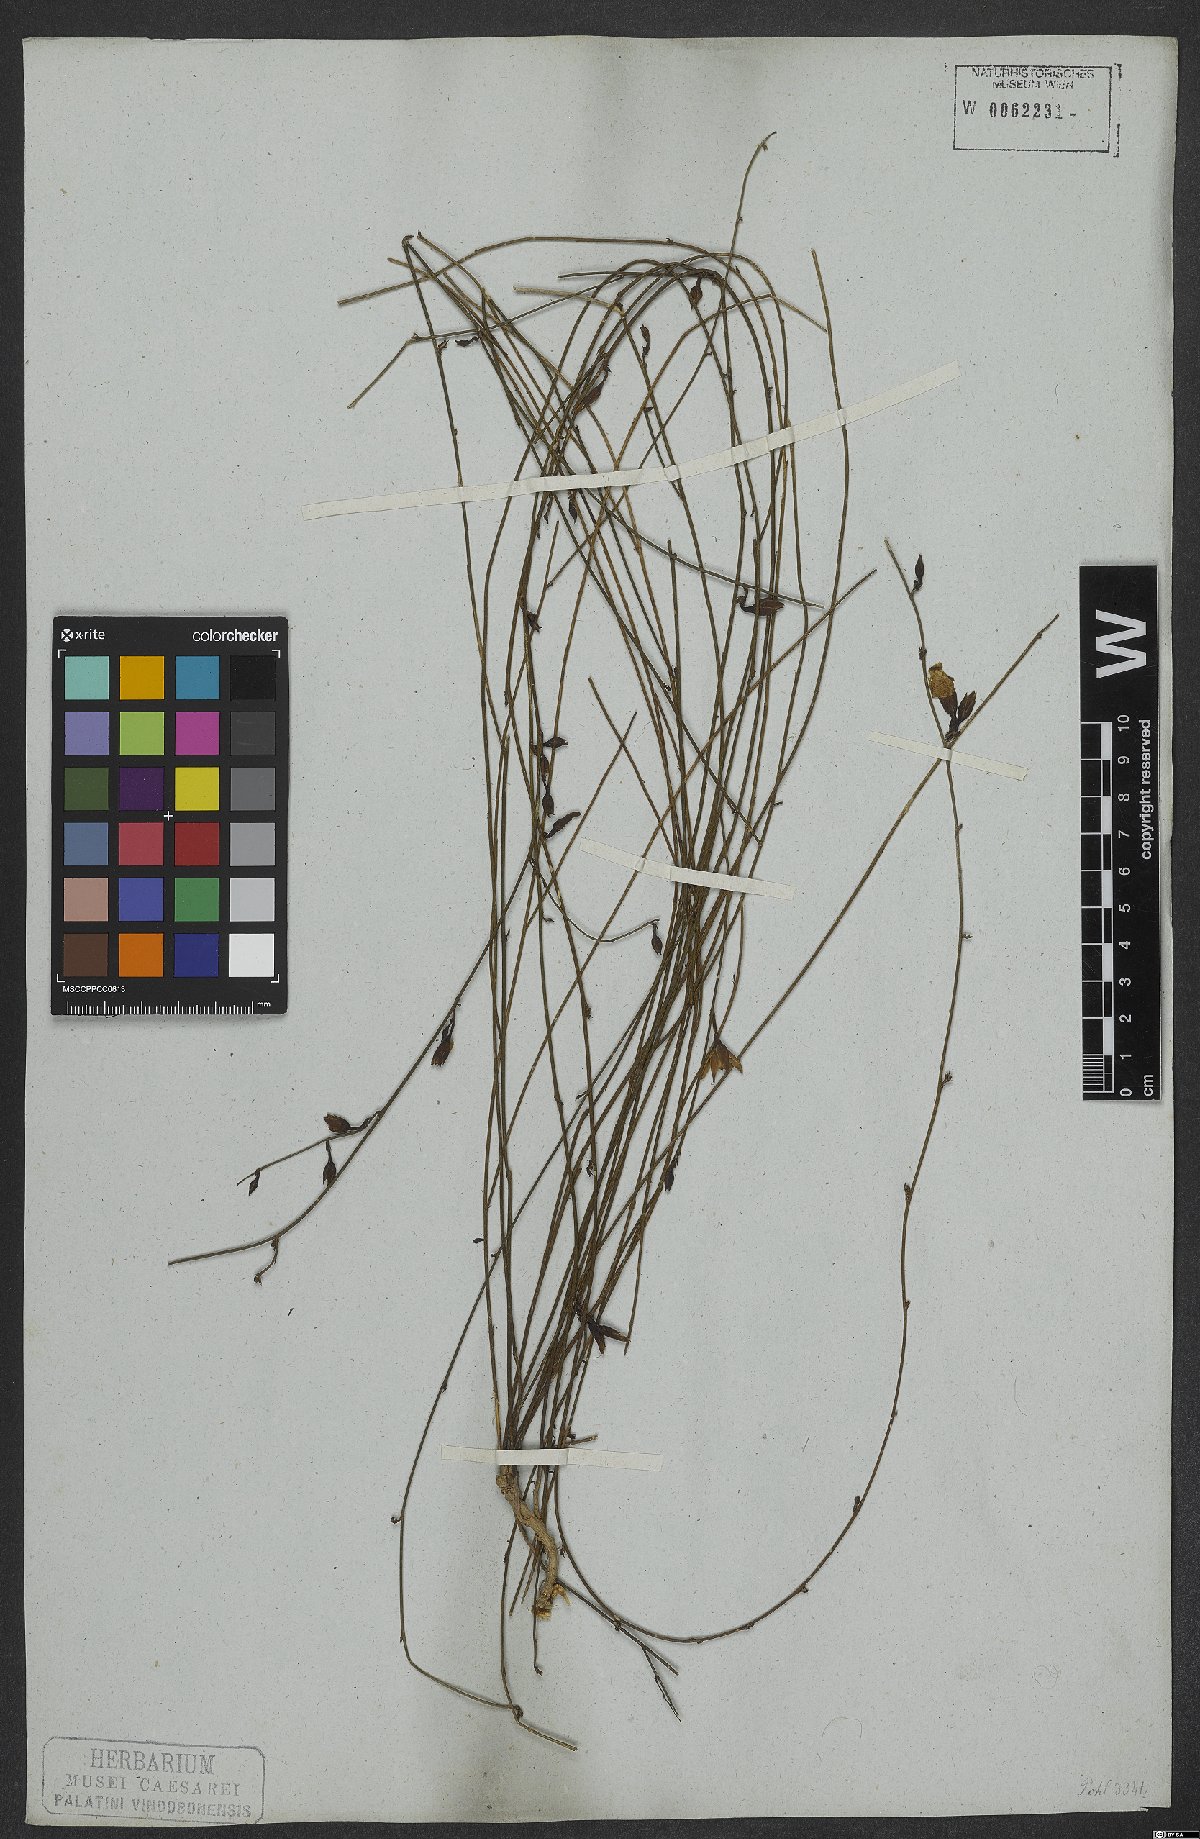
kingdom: Plantae
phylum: Tracheophyta
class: Magnoliopsida
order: Solanales
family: Convolvulaceae
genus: Distimake
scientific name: Distimake aturensis
